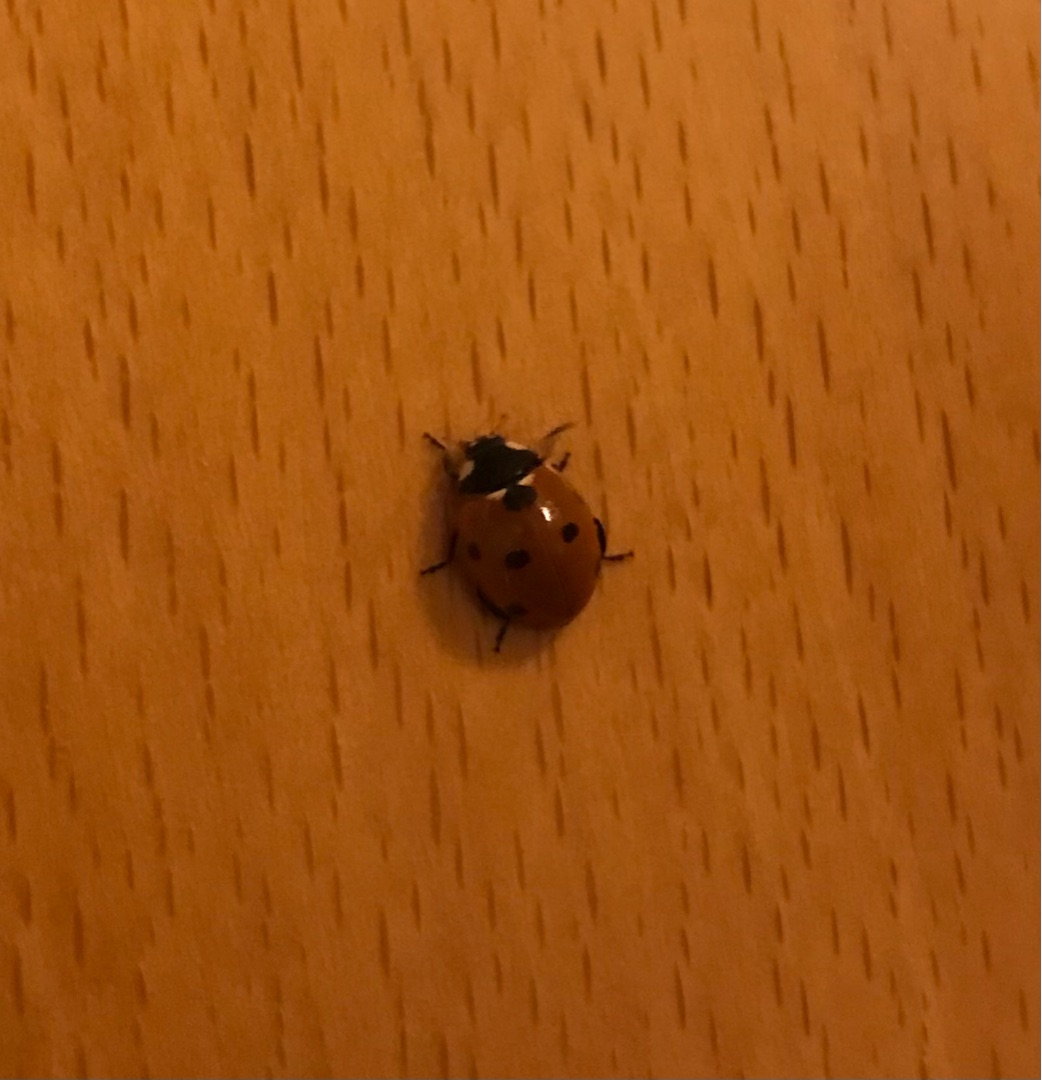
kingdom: Animalia
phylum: Arthropoda
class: Insecta
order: Coleoptera
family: Coccinellidae
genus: Coccinella
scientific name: Coccinella septempunctata
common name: Syvplettet mariehøne
